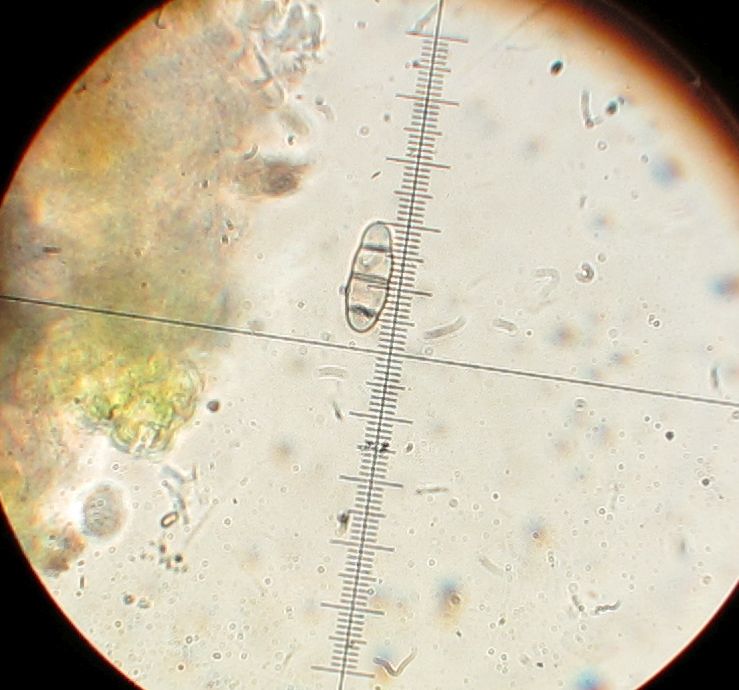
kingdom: Fungi
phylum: Ascomycota
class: Dothideomycetes
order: Hysteriales
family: Hysteriaceae
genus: Hysterium
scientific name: Hysterium acuminatum
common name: almindelig kulmund
